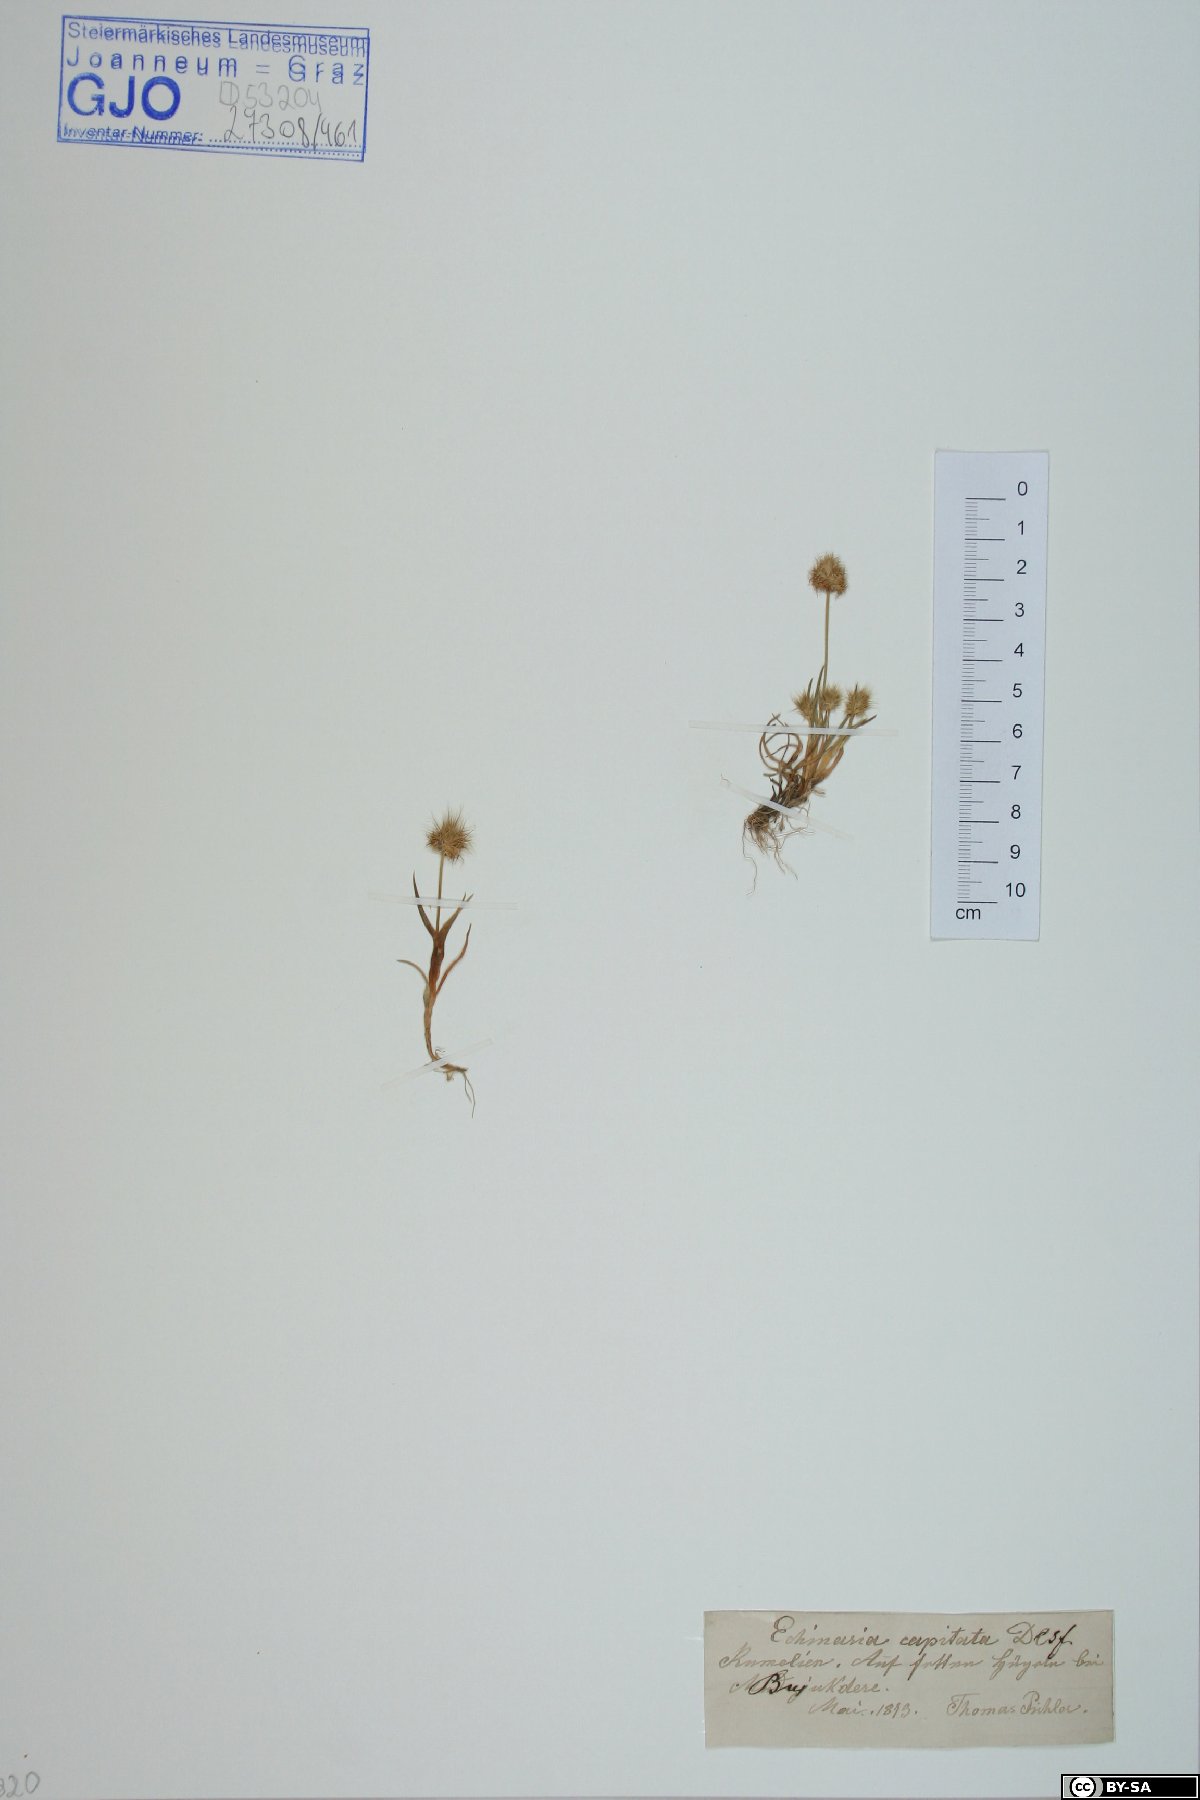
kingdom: Plantae
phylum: Tracheophyta
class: Liliopsida
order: Poales
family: Poaceae
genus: Echinaria
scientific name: Echinaria capitata
